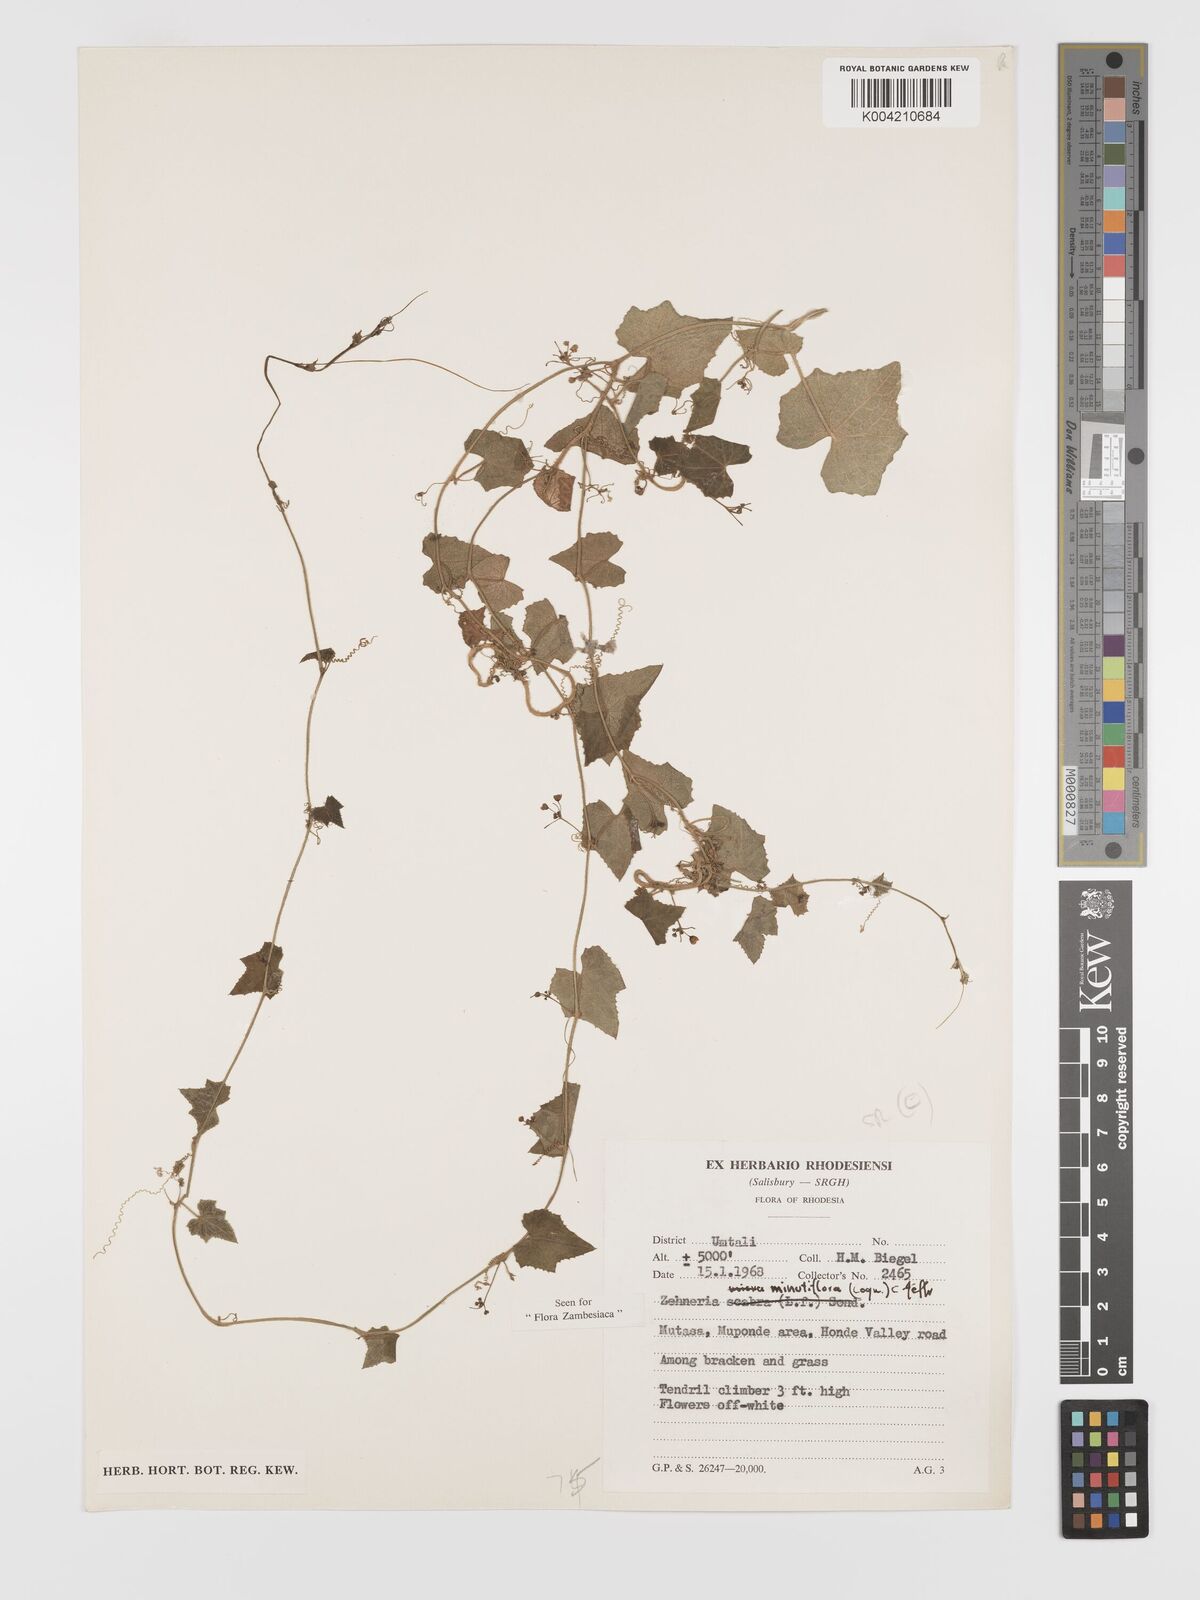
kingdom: Plantae
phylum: Tracheophyta
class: Magnoliopsida
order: Cucurbitales
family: Cucurbitaceae
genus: Zehneria
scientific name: Zehneria minutiflora
